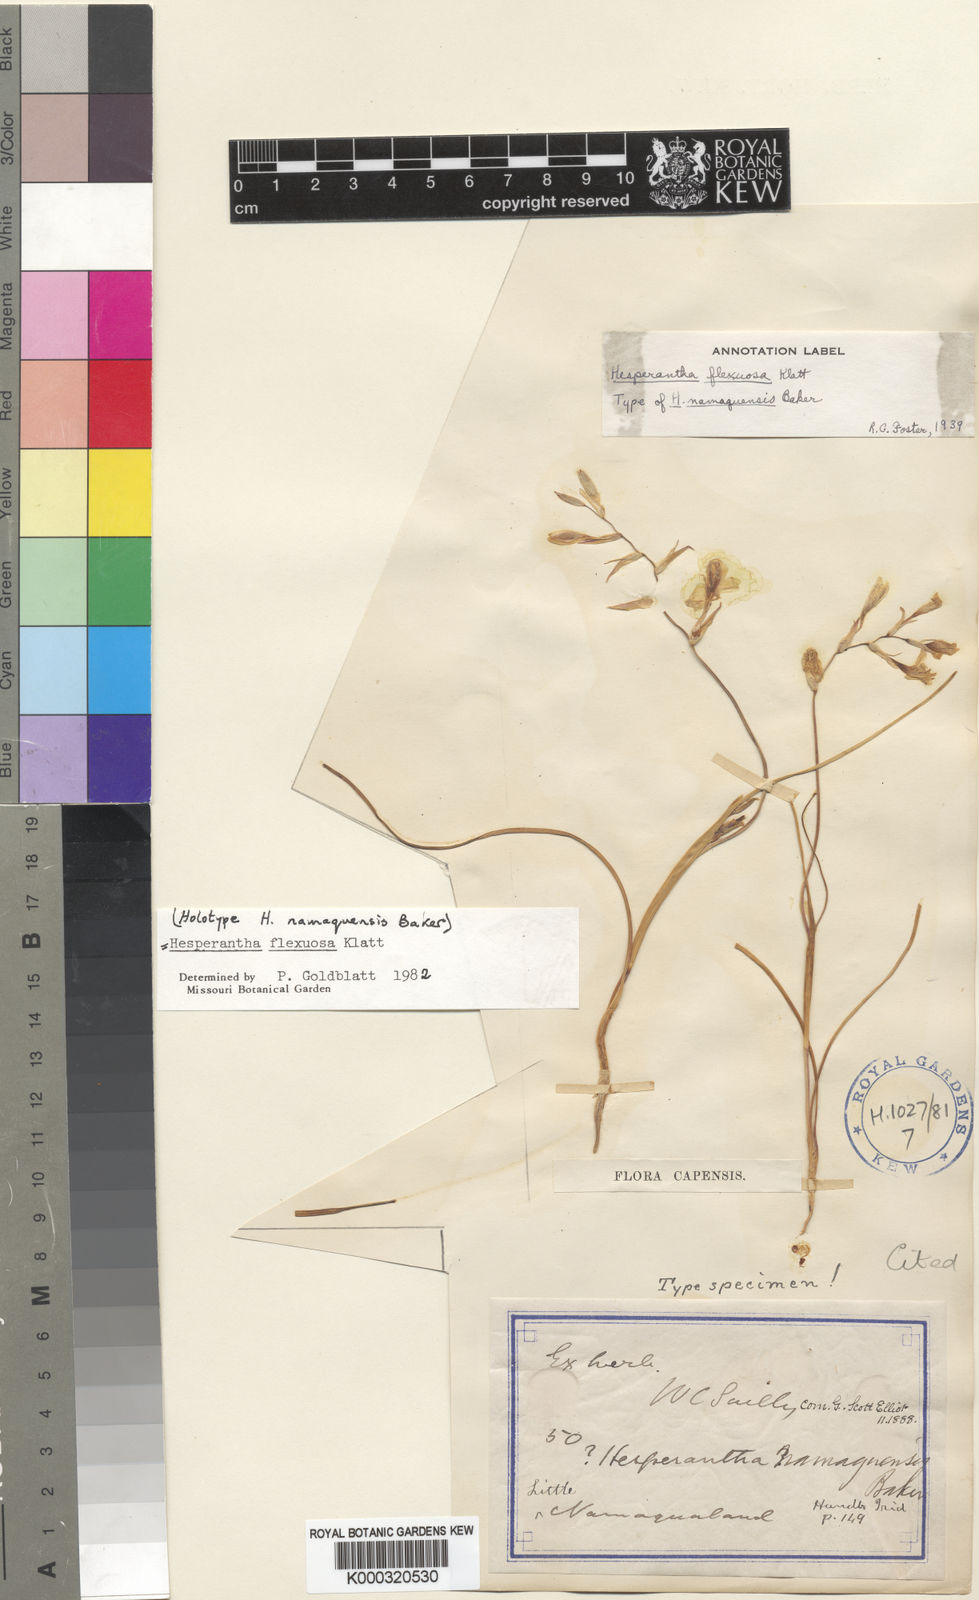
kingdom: Plantae
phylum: Tracheophyta
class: Liliopsida
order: Asparagales
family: Iridaceae
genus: Hesperantha
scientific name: Hesperantha flexuosa
